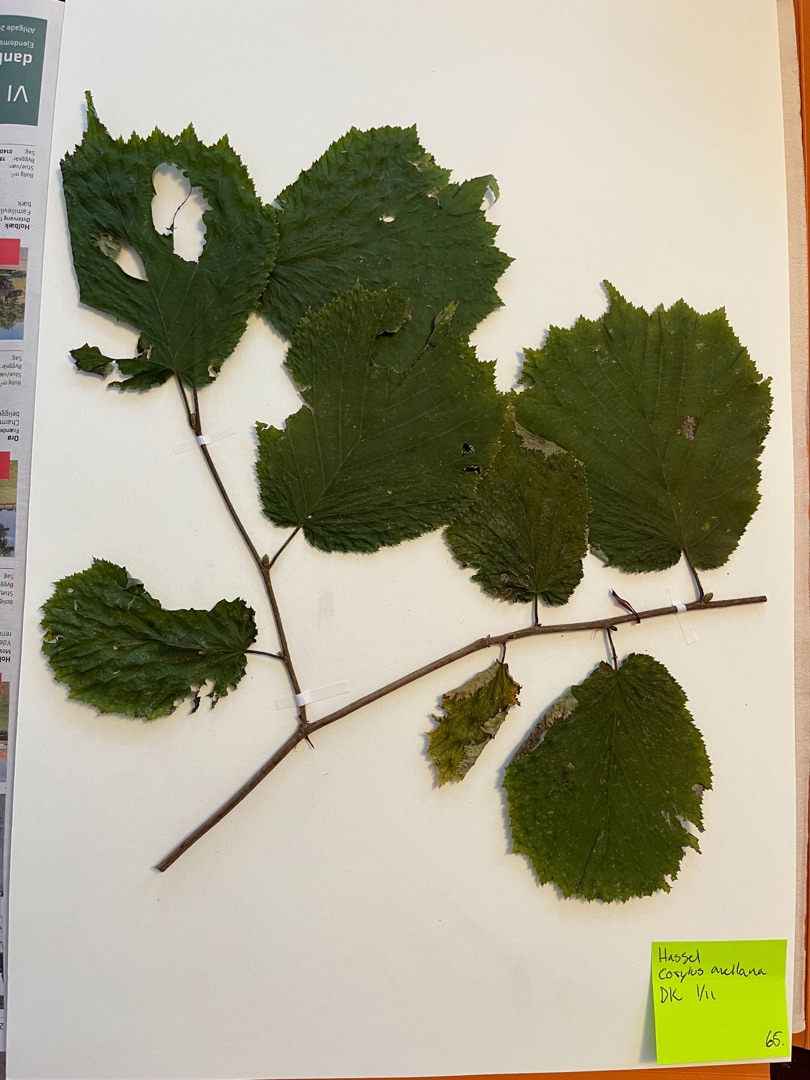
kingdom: Plantae
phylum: Tracheophyta
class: Magnoliopsida
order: Fagales
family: Betulaceae
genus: Corylus
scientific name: Corylus avellana
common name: Hassel
